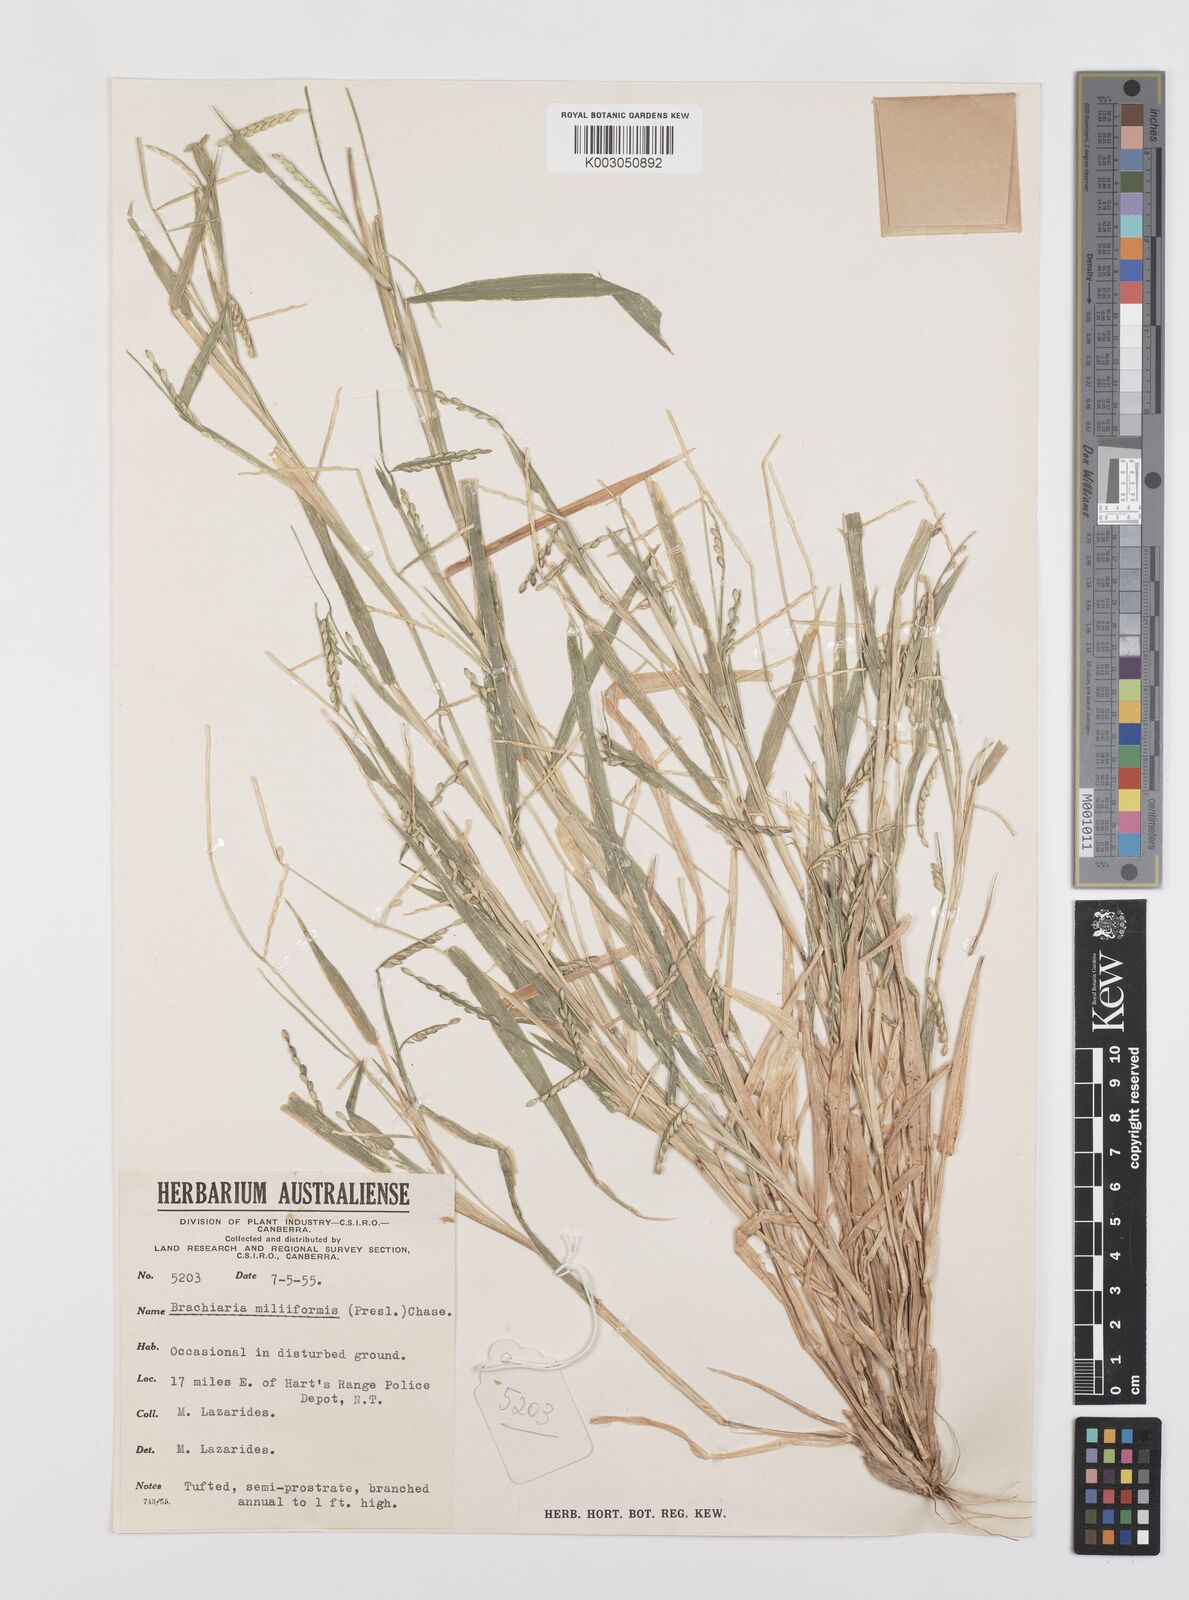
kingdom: Plantae
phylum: Tracheophyta
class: Liliopsida
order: Poales
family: Poaceae
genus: Urochloa
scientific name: Urochloa subquadripara
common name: Armgrass millet
